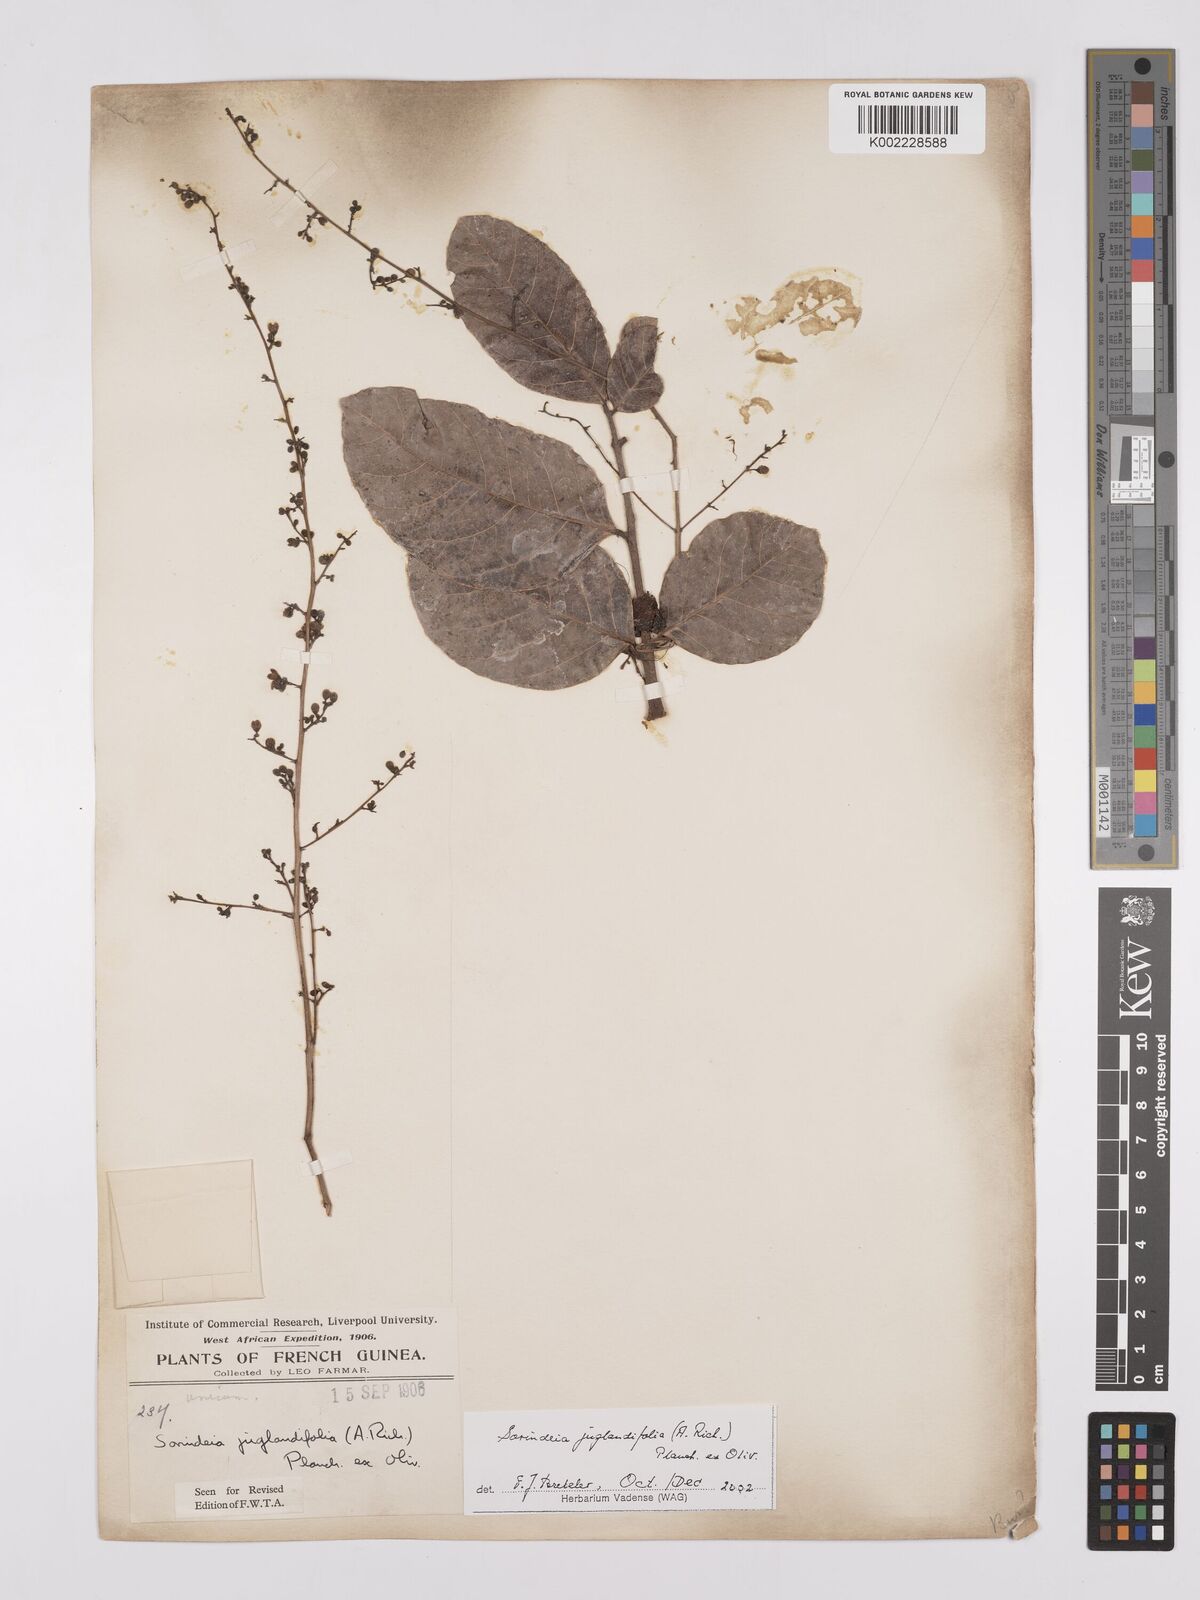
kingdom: Plantae
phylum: Tracheophyta
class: Magnoliopsida
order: Sapindales
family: Anacardiaceae
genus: Sorindeia
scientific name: Sorindeia juglandifolia
